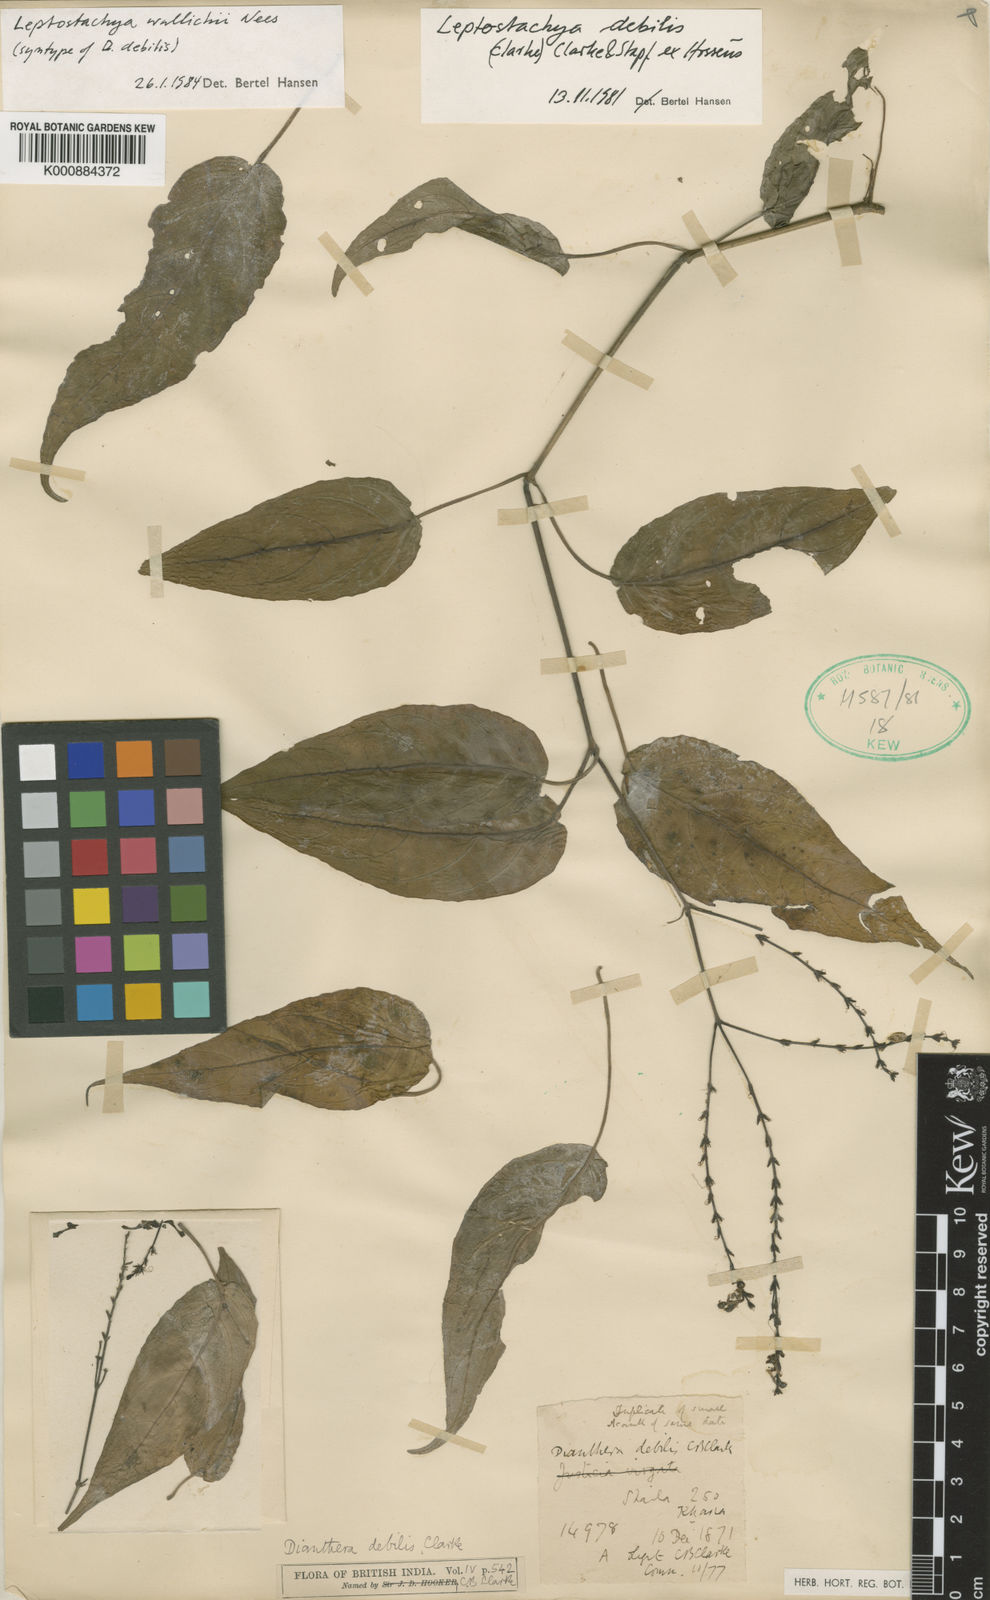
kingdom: Plantae
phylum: Tracheophyta
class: Magnoliopsida
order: Lamiales
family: Acanthaceae
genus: Leptostachya
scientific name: Leptostachya wallichii
